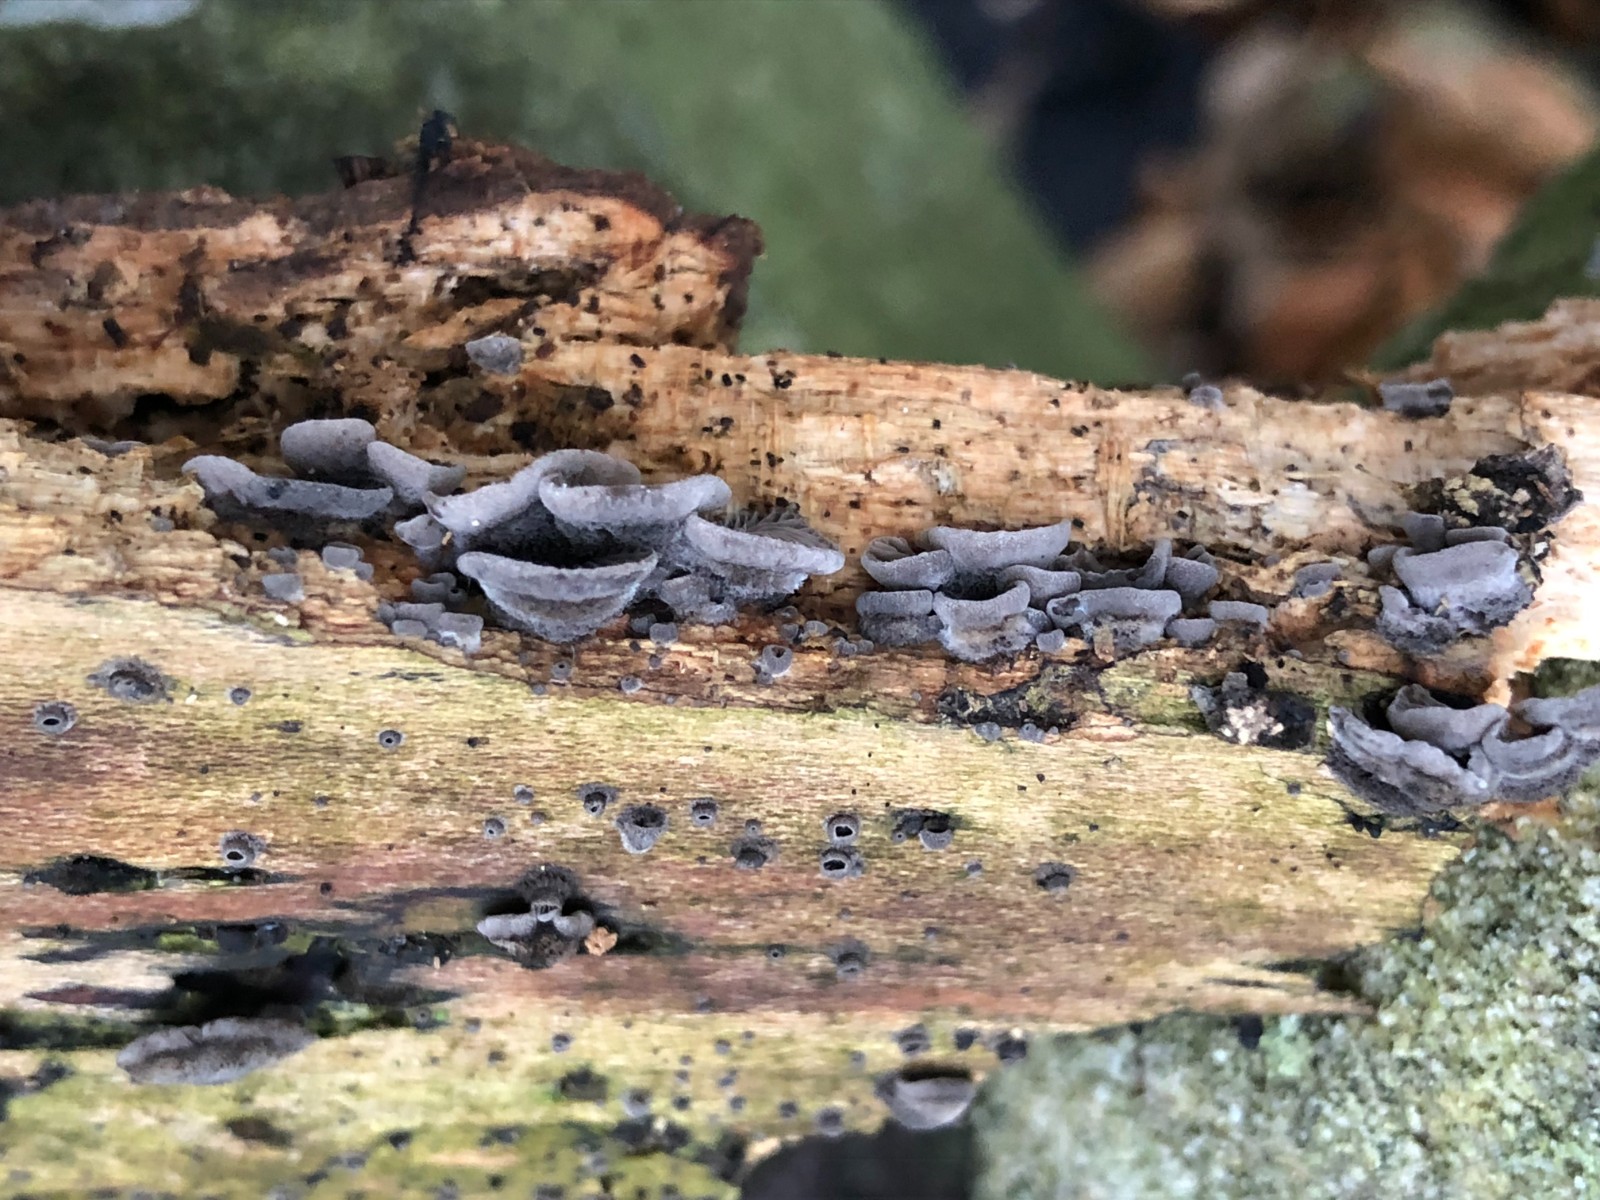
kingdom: Fungi
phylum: Basidiomycota
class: Agaricomycetes
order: Agaricales
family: Pleurotaceae
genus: Resupinatus
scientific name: Resupinatus trichotis
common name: mørkfiltet barkhat
